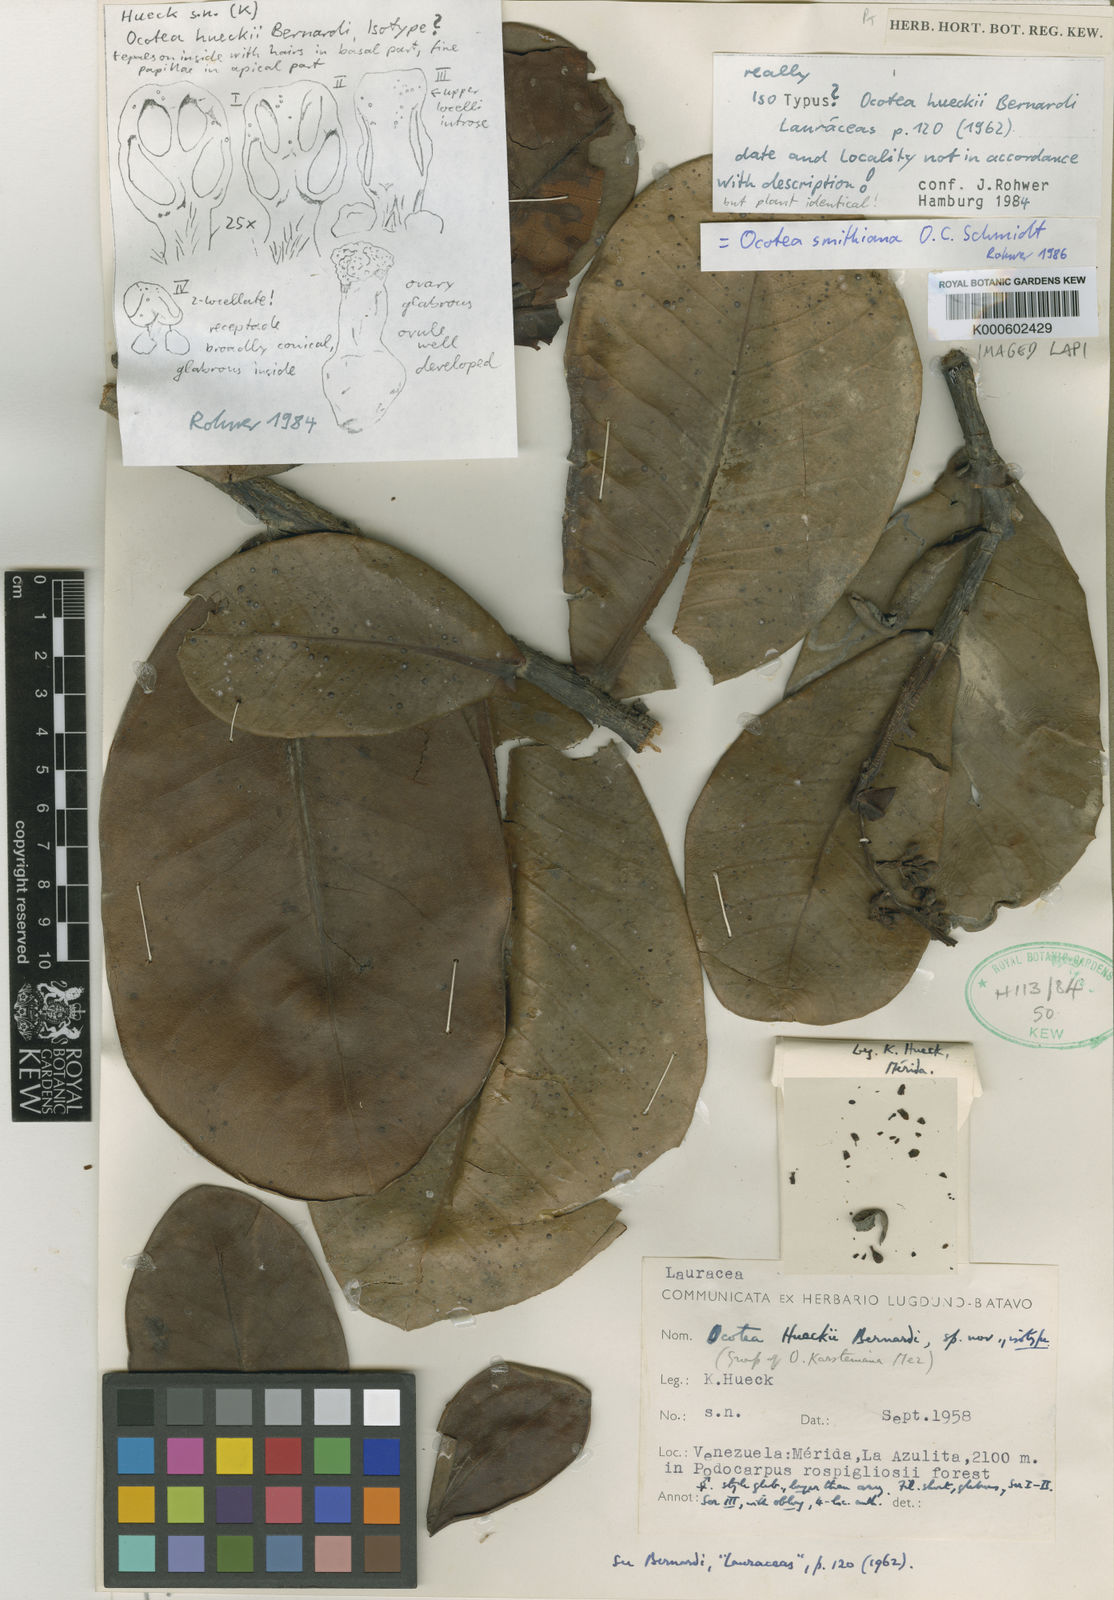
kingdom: Plantae
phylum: Tracheophyta
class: Magnoliopsida
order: Laurales
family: Lauraceae
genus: Andea
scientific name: Andea smithiana
